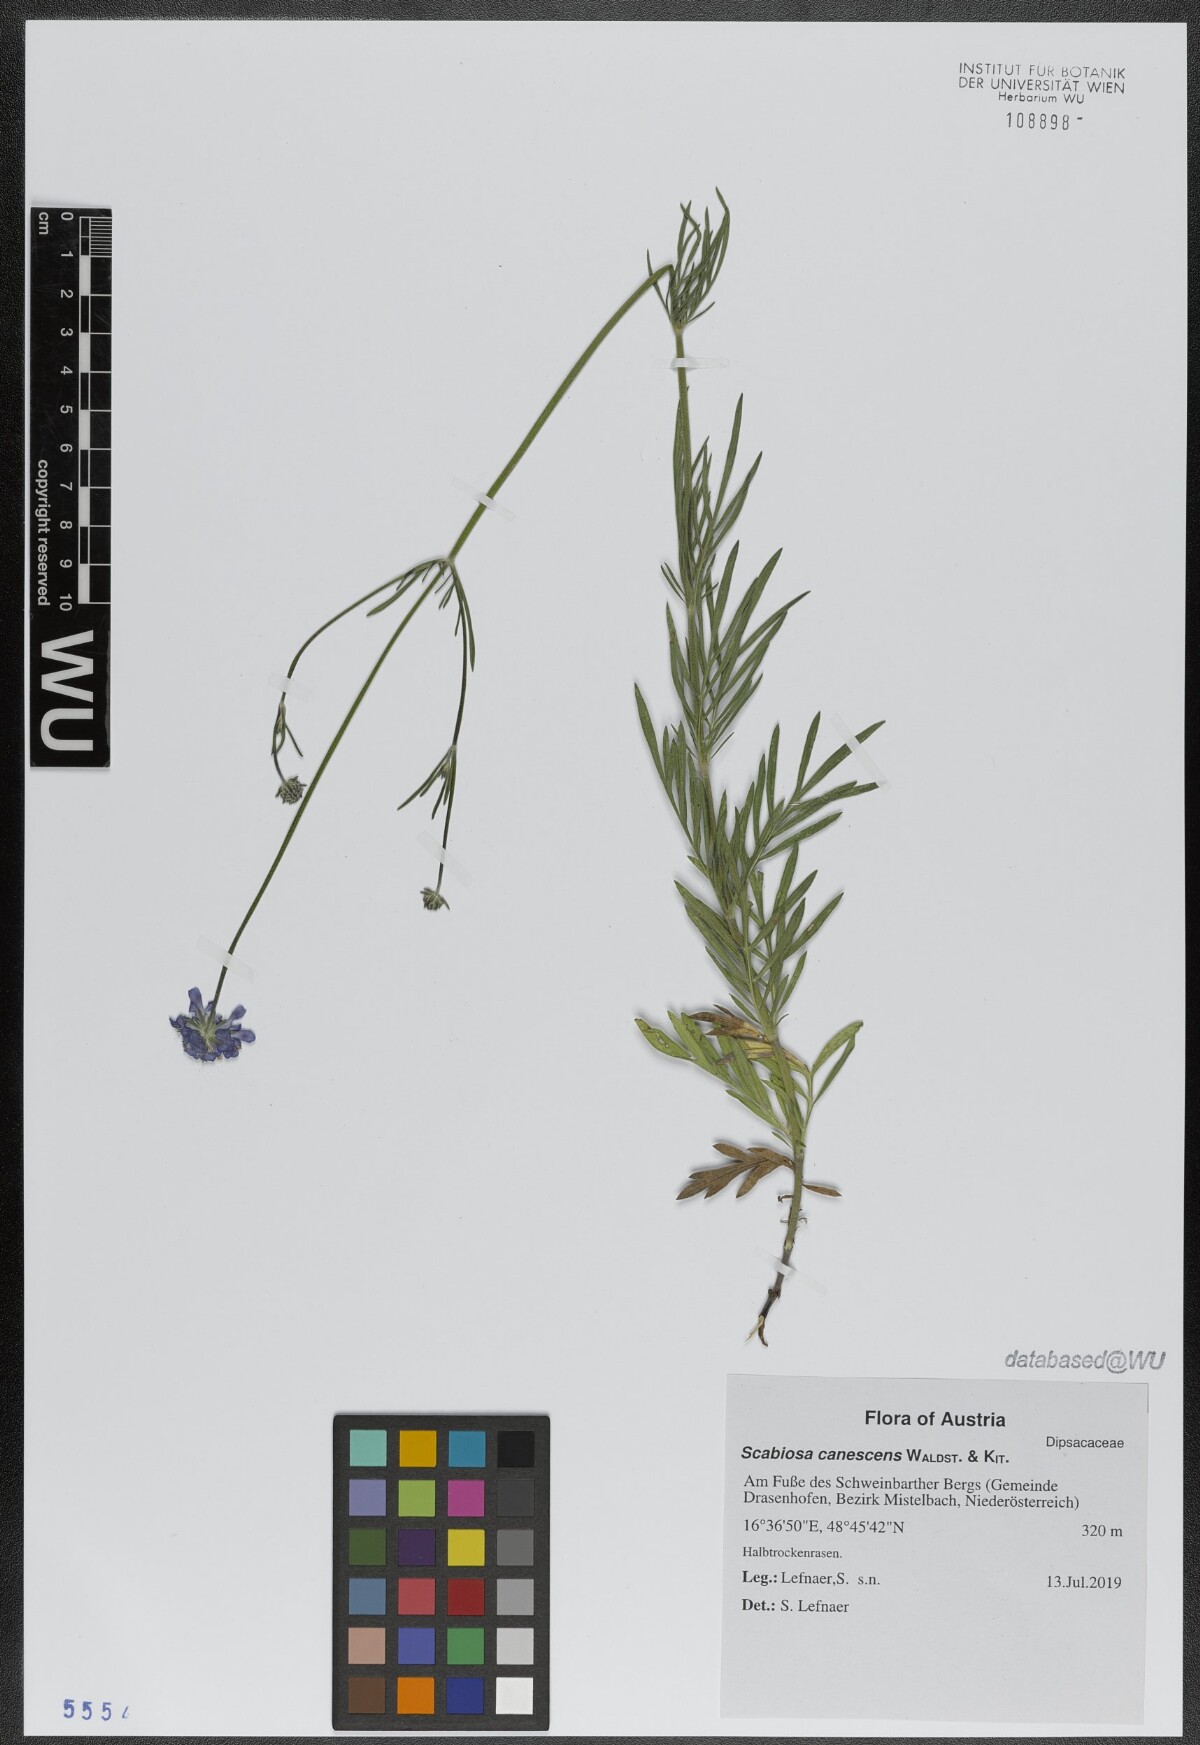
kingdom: Plantae
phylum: Tracheophyta
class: Magnoliopsida
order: Dipsacales
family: Caprifoliaceae
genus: Scabiosa
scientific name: Scabiosa canescens
